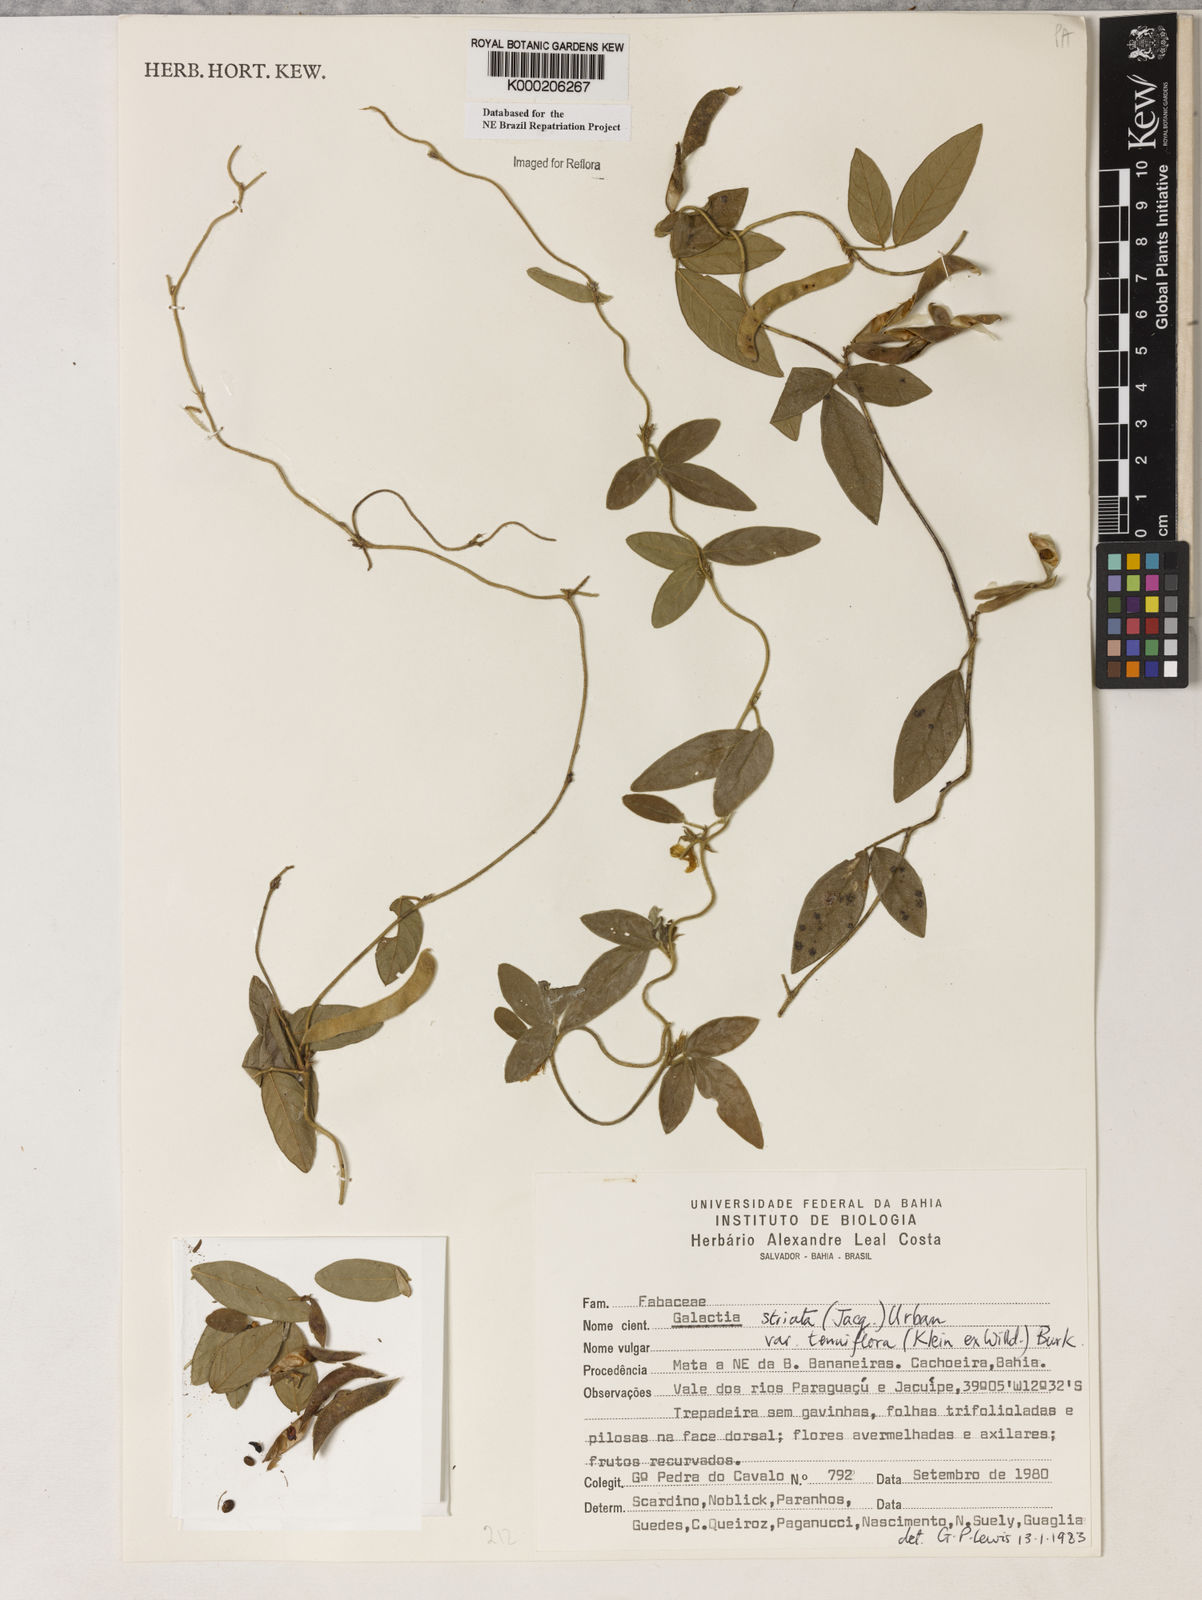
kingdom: Plantae
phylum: Tracheophyta
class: Magnoliopsida
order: Fabales
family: Fabaceae
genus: Galactia
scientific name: Galactia striata
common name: Florida hammock milkpea
